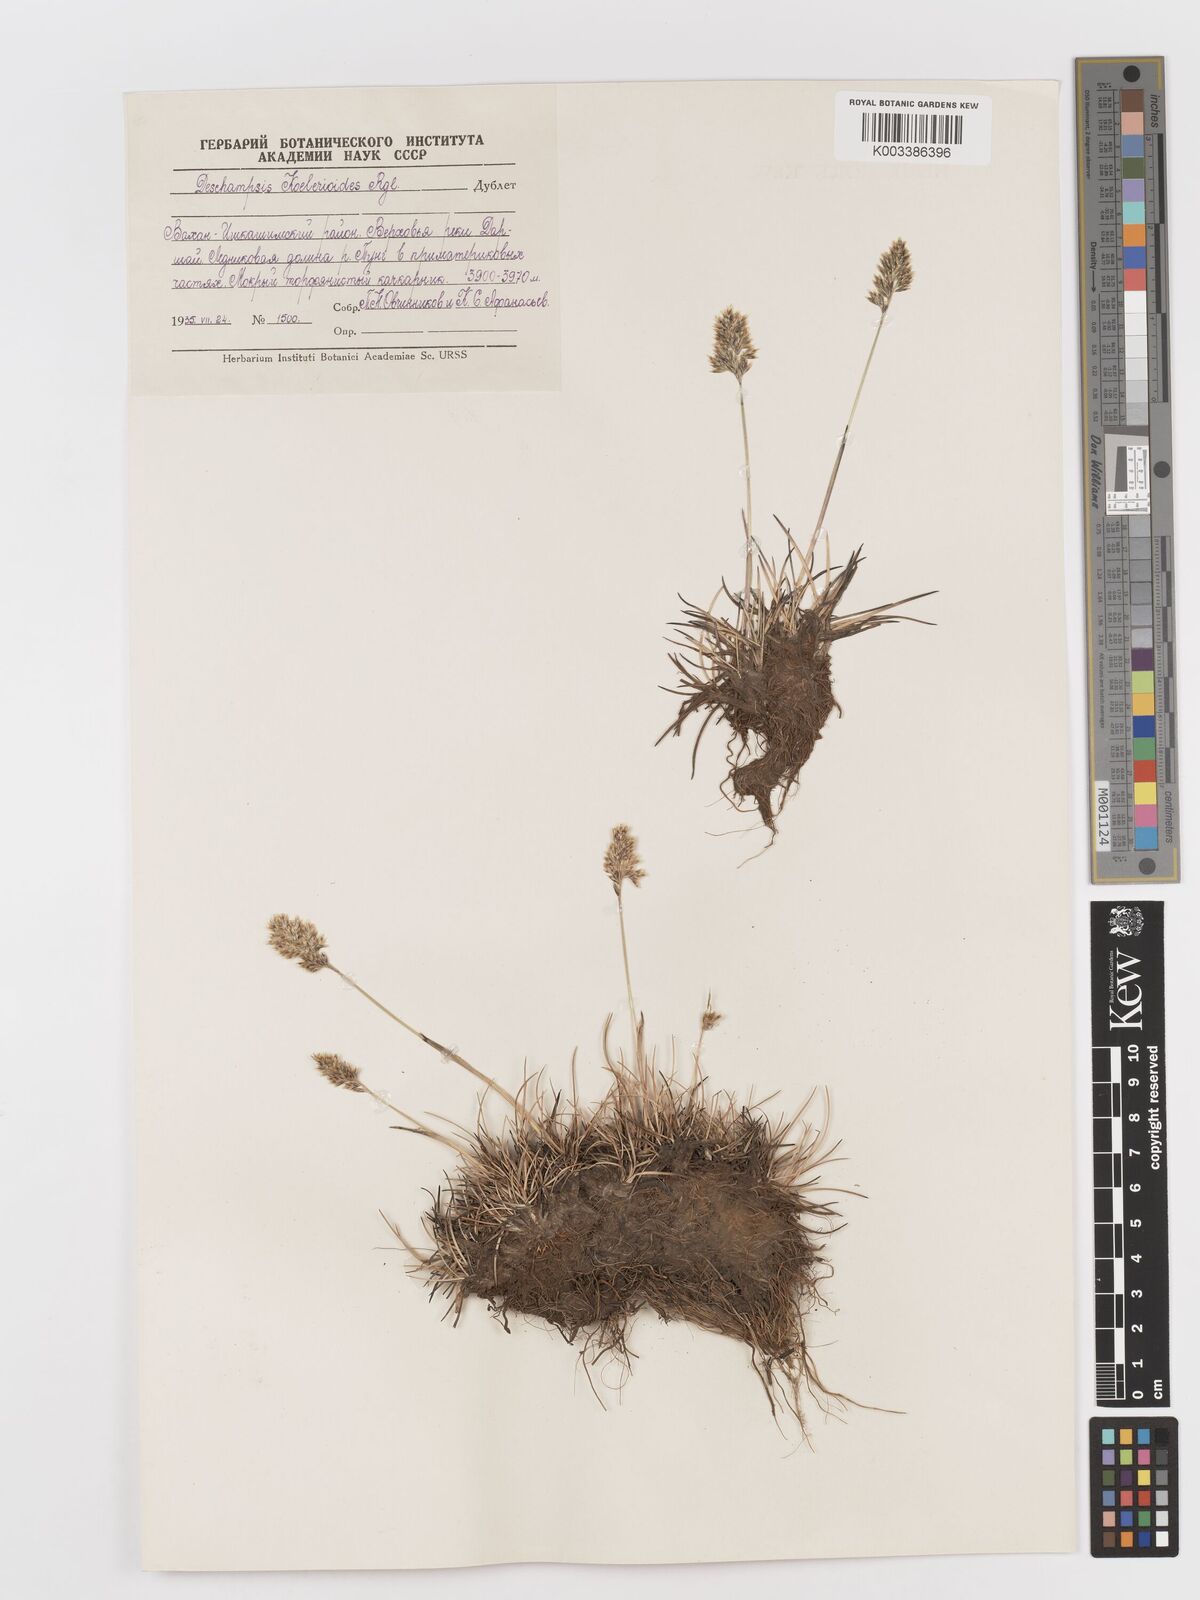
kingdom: Plantae
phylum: Tracheophyta
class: Liliopsida
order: Poales
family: Poaceae
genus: Deschampsia
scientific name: Deschampsia koelerioides
